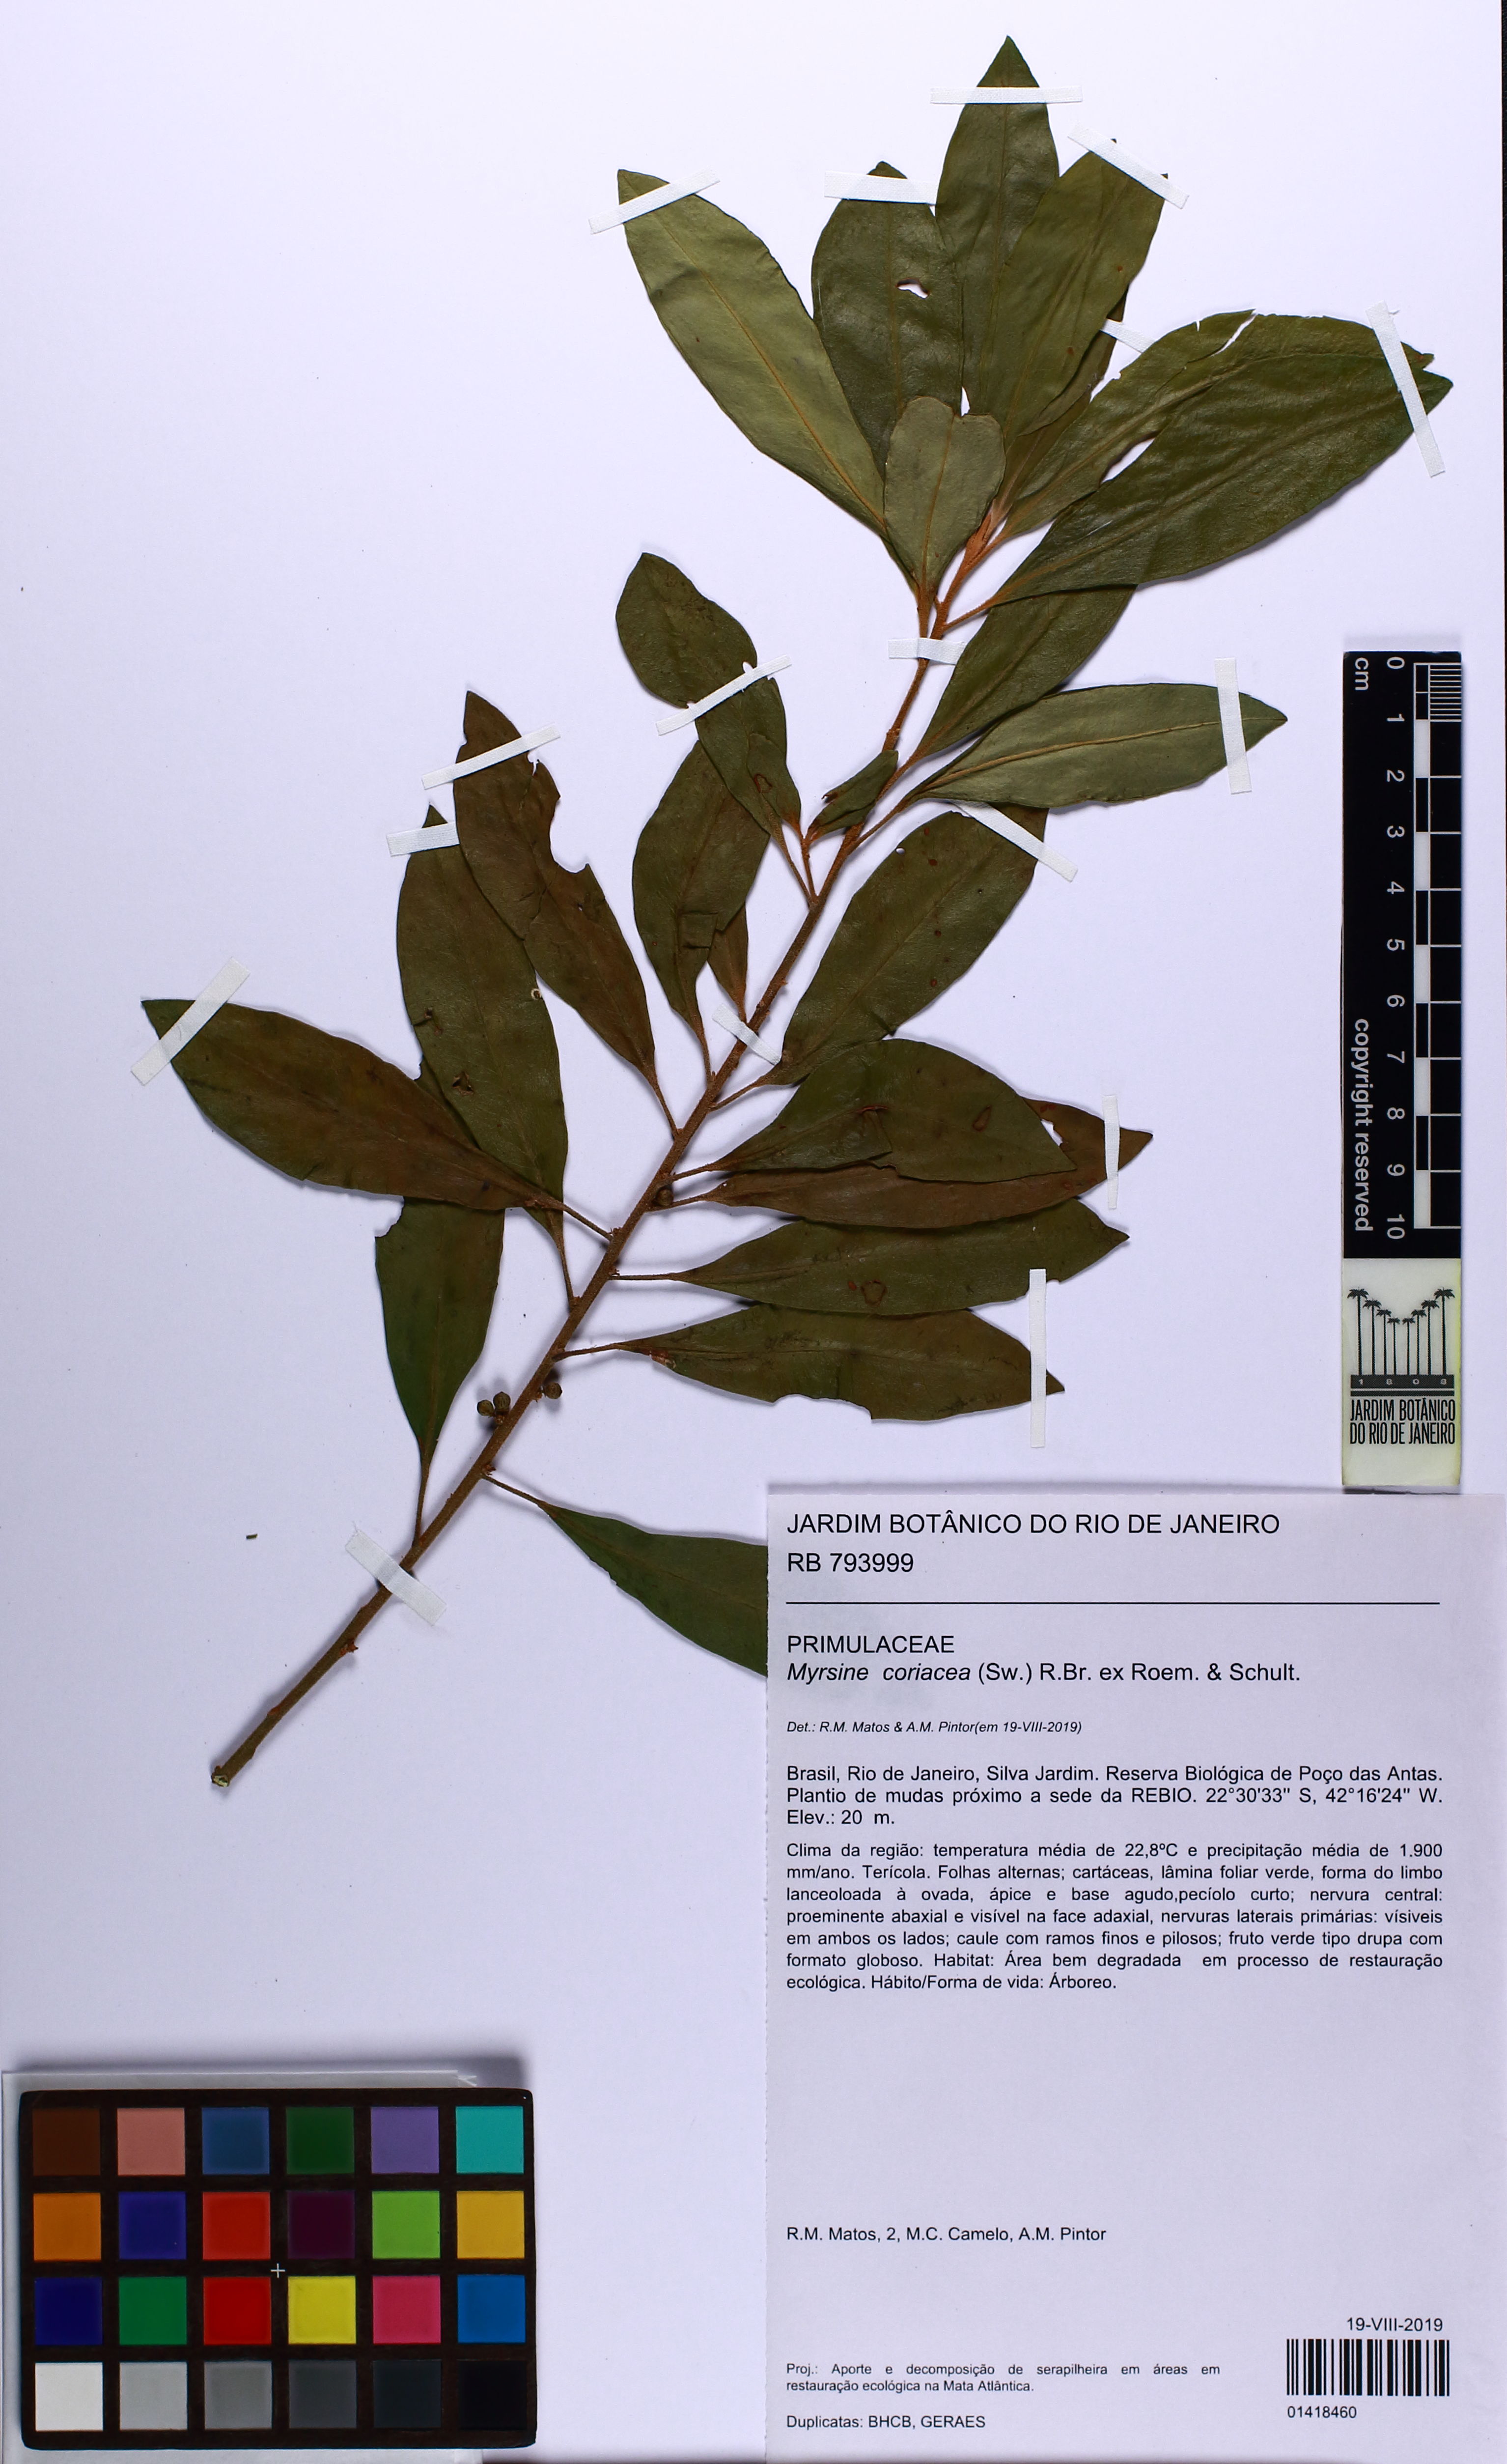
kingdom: Plantae
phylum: Tracheophyta
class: Magnoliopsida
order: Ericales
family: Primulaceae
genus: Myrsine
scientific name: Myrsine coriacea
